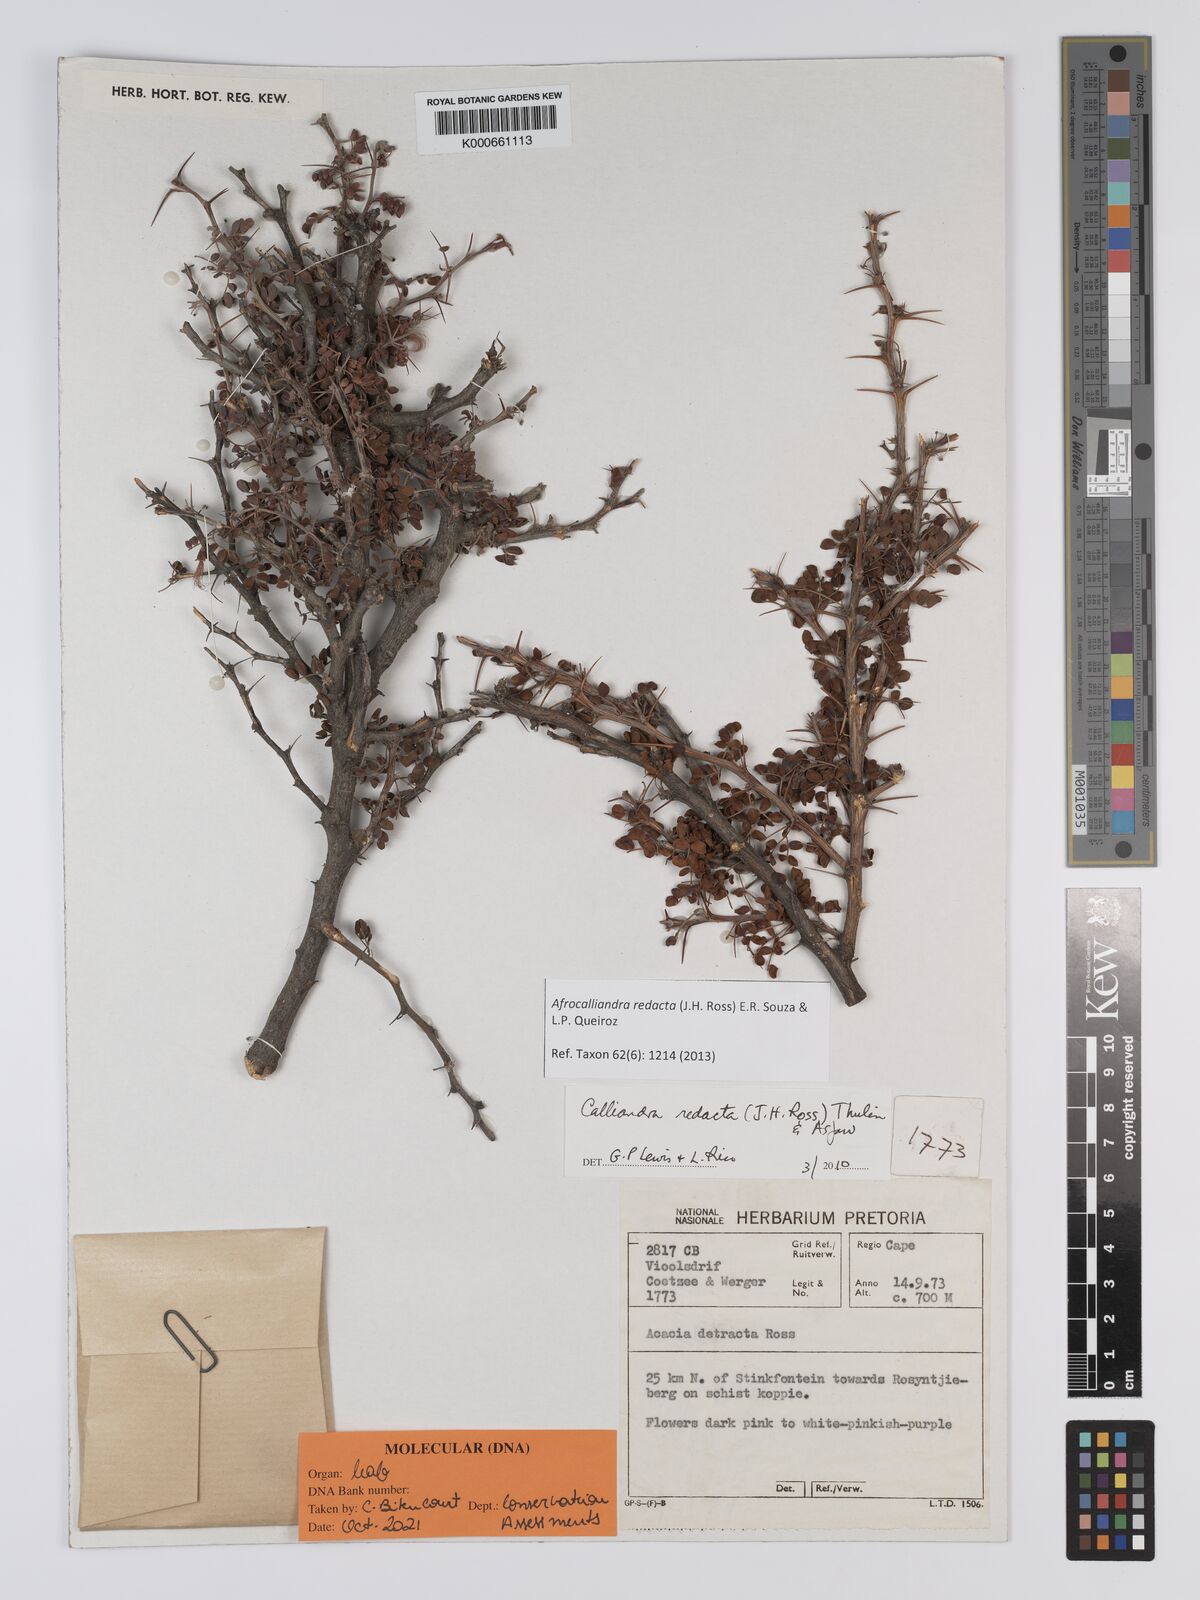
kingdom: Plantae
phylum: Tracheophyta
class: Magnoliopsida
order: Fabales
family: Fabaceae
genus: Afrocalliandra
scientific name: Afrocalliandra redacta
